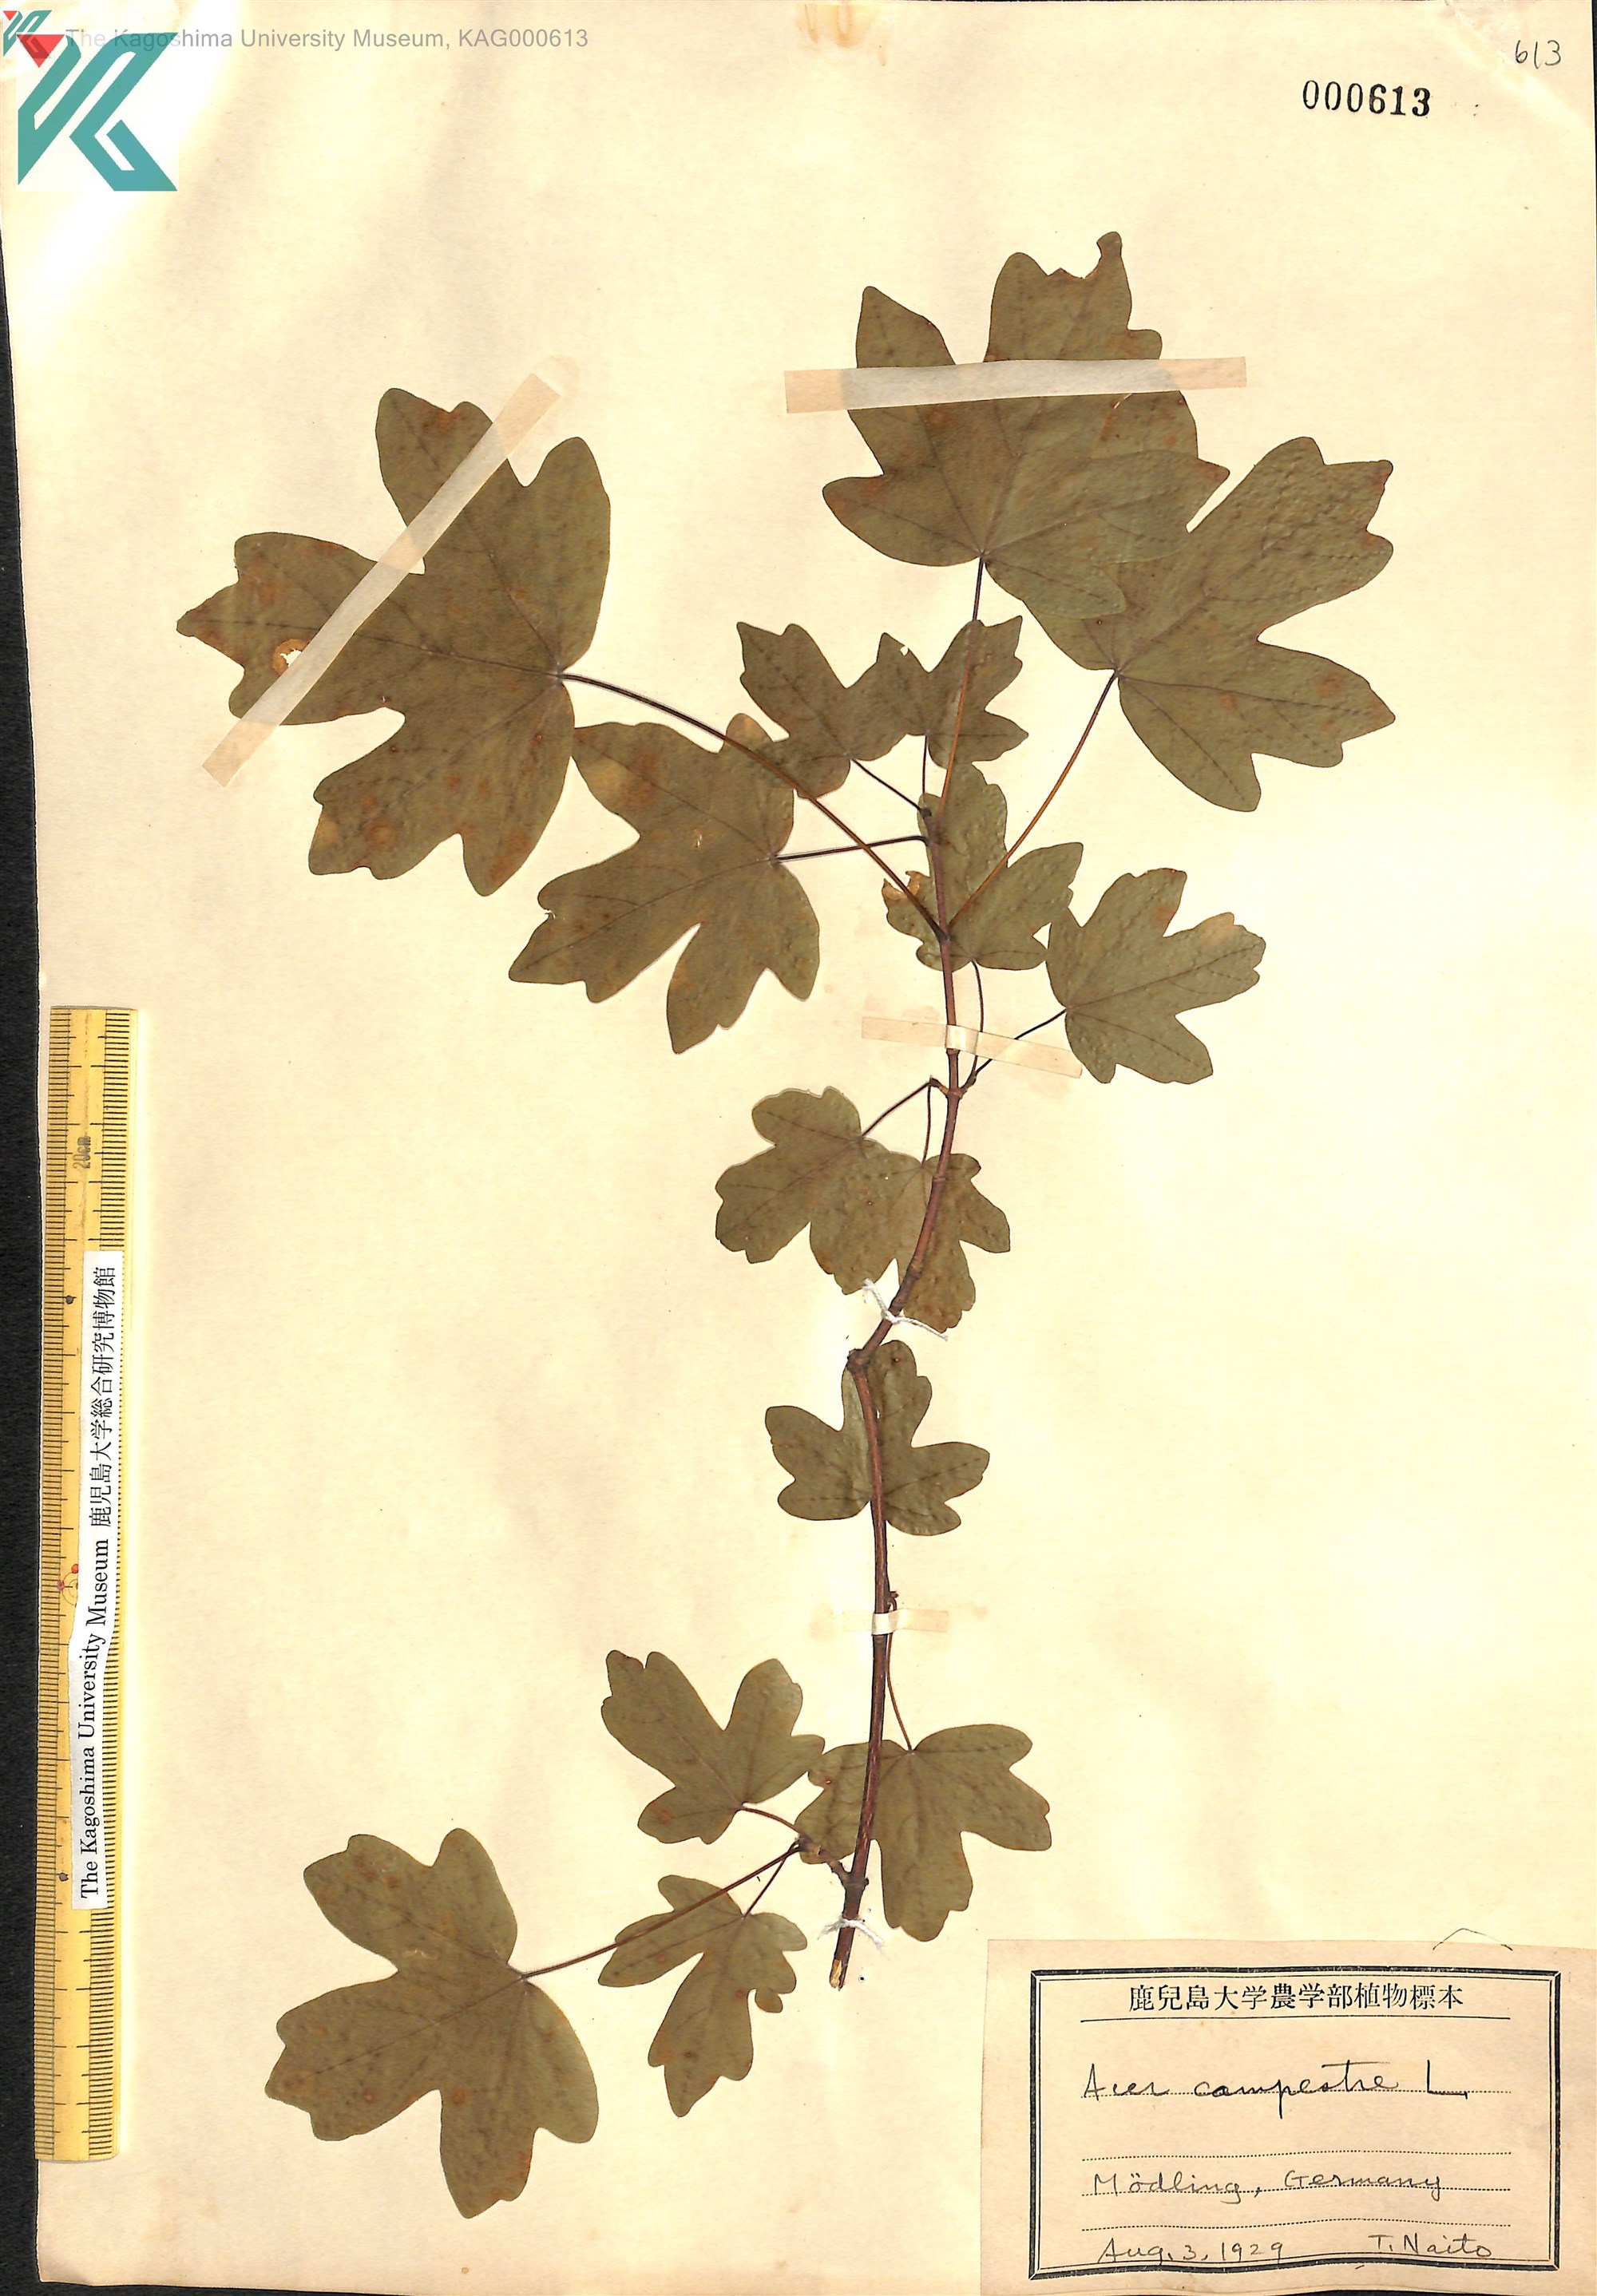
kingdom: Plantae
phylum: Tracheophyta
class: Magnoliopsida
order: Sapindales
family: Sapindaceae
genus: Acer
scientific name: Acer campestre
